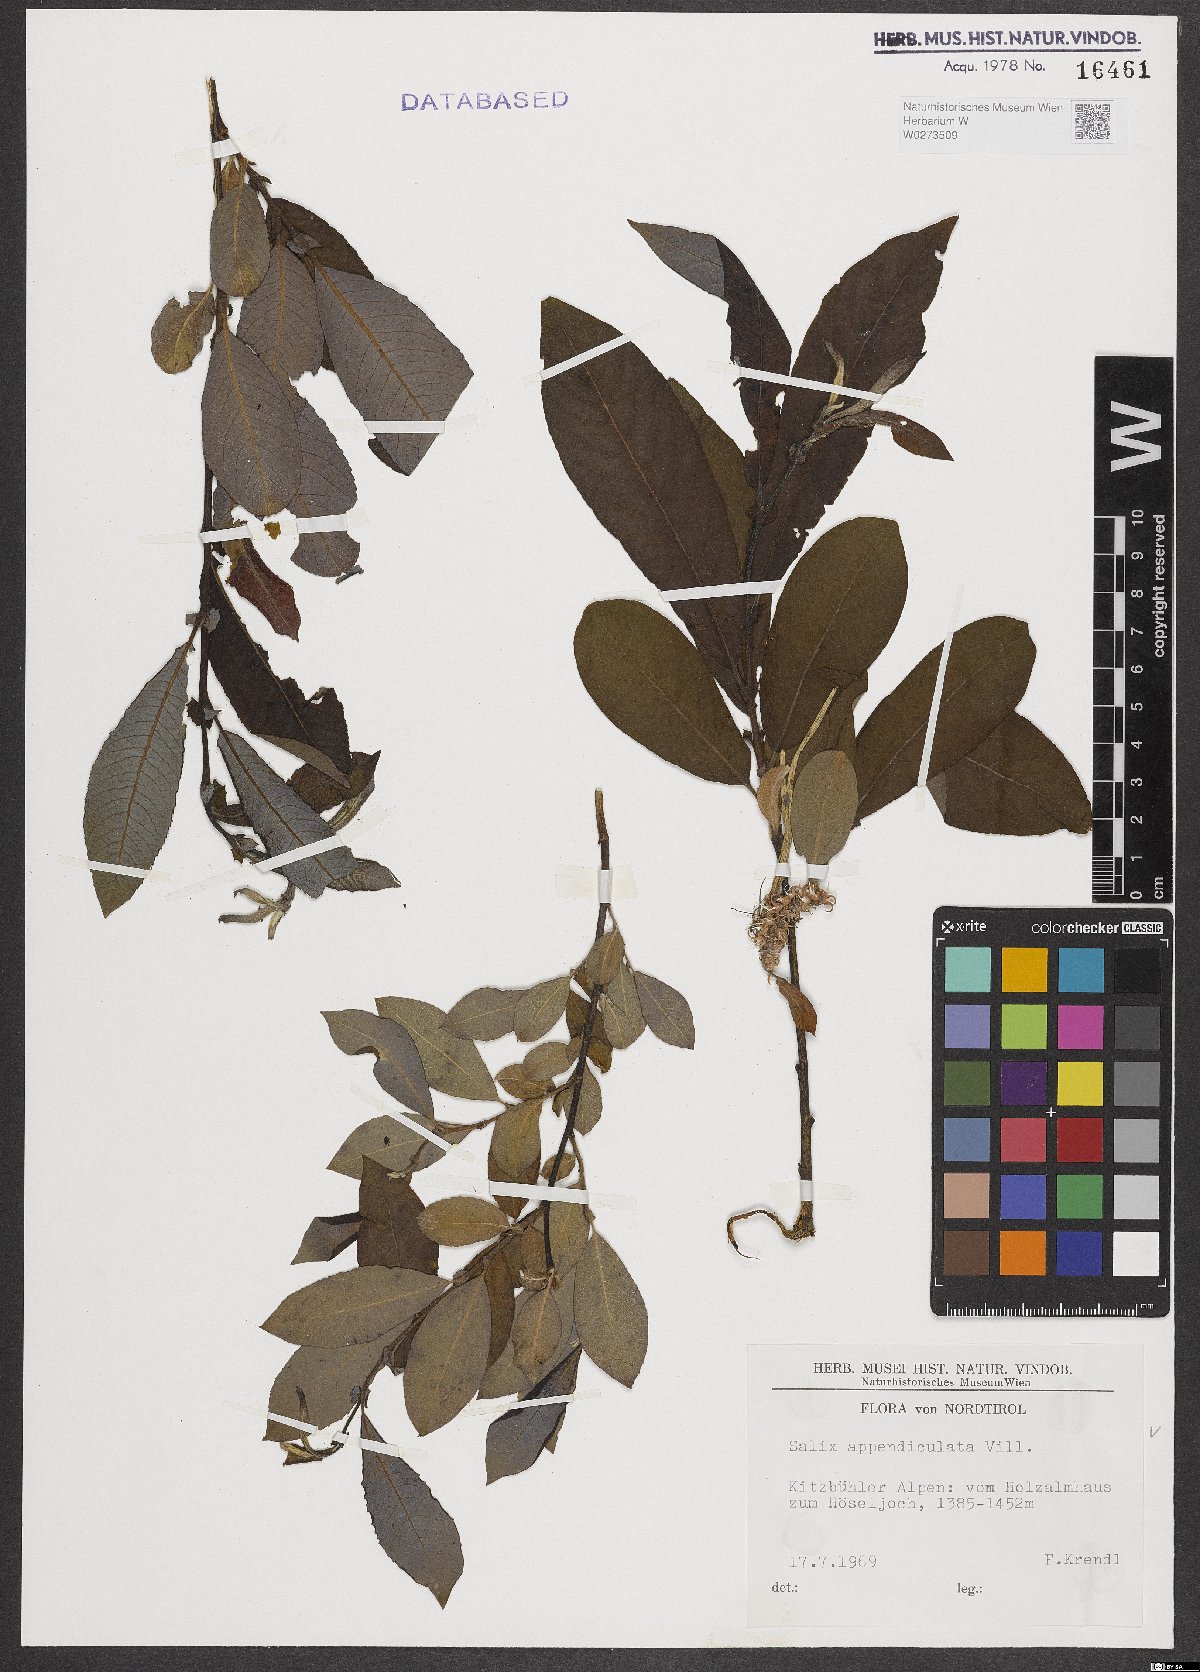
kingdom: Plantae
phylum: Tracheophyta
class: Magnoliopsida
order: Malpighiales
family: Salicaceae
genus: Salix
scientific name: Salix appendiculata
